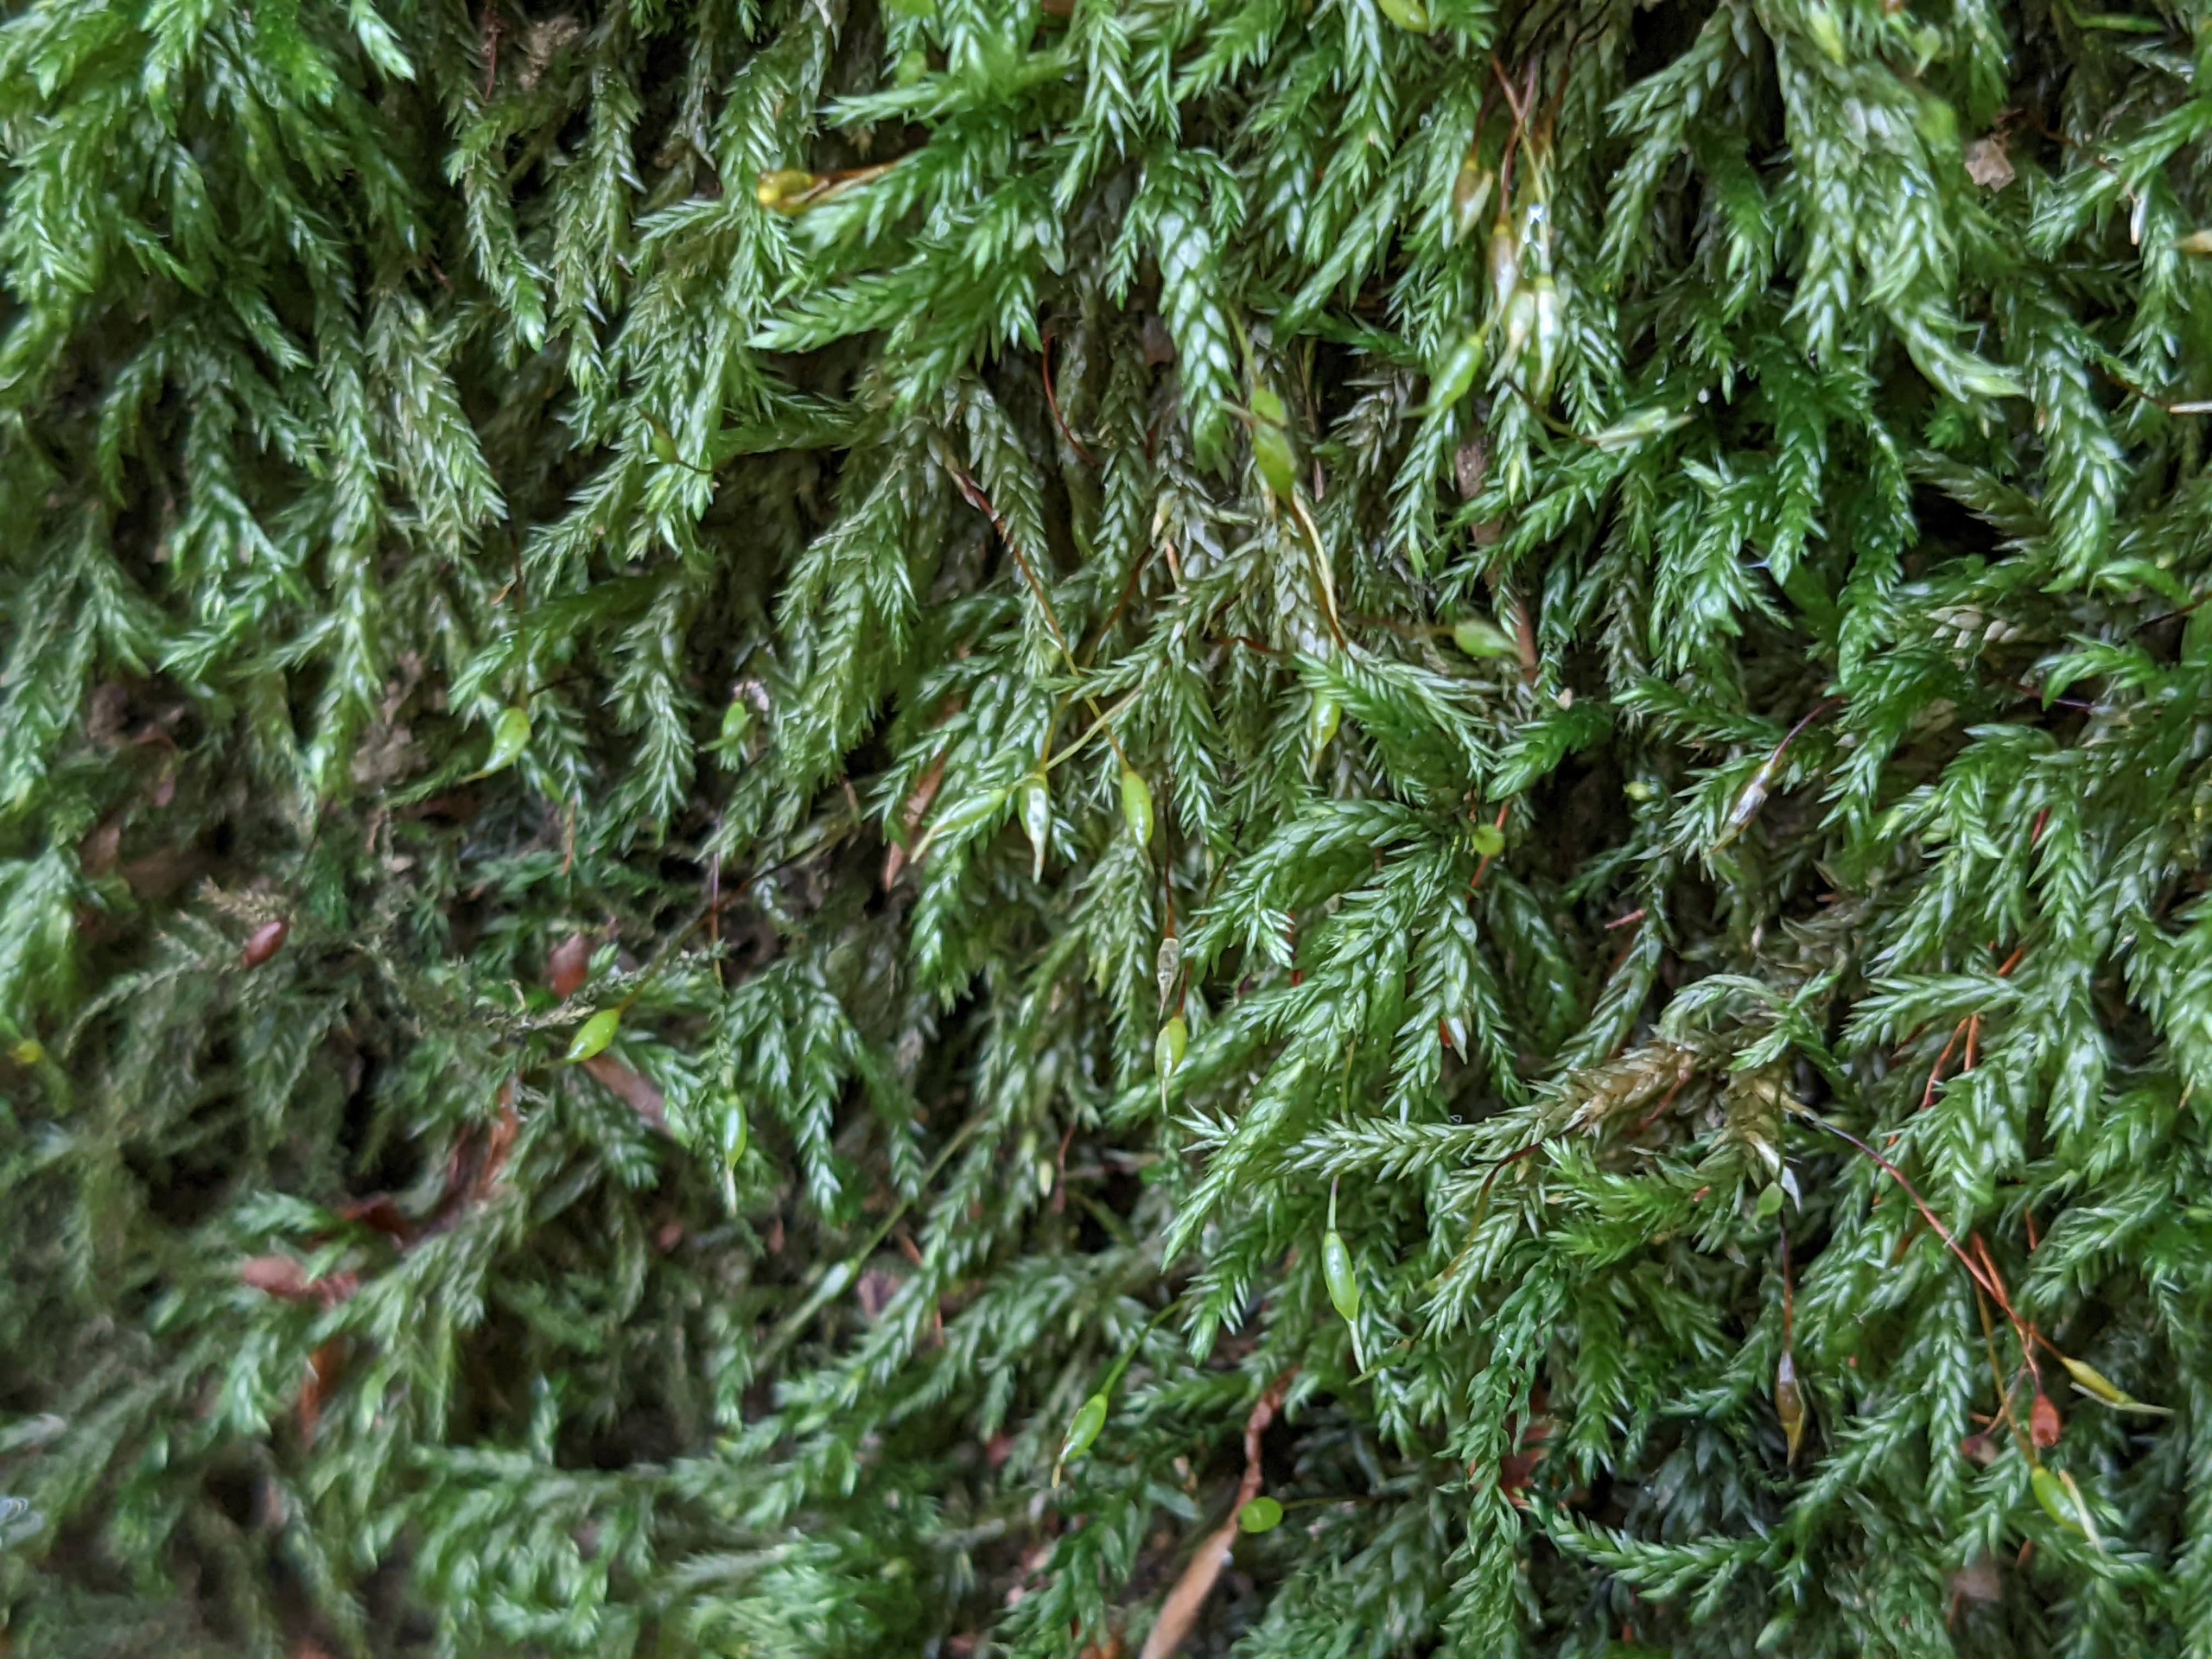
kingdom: Plantae
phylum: Bryophyta
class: Bryopsida
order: Hypnales
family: Lembophyllaceae
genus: Isothecium
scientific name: Isothecium alopecuroides
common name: Stor stammemos
